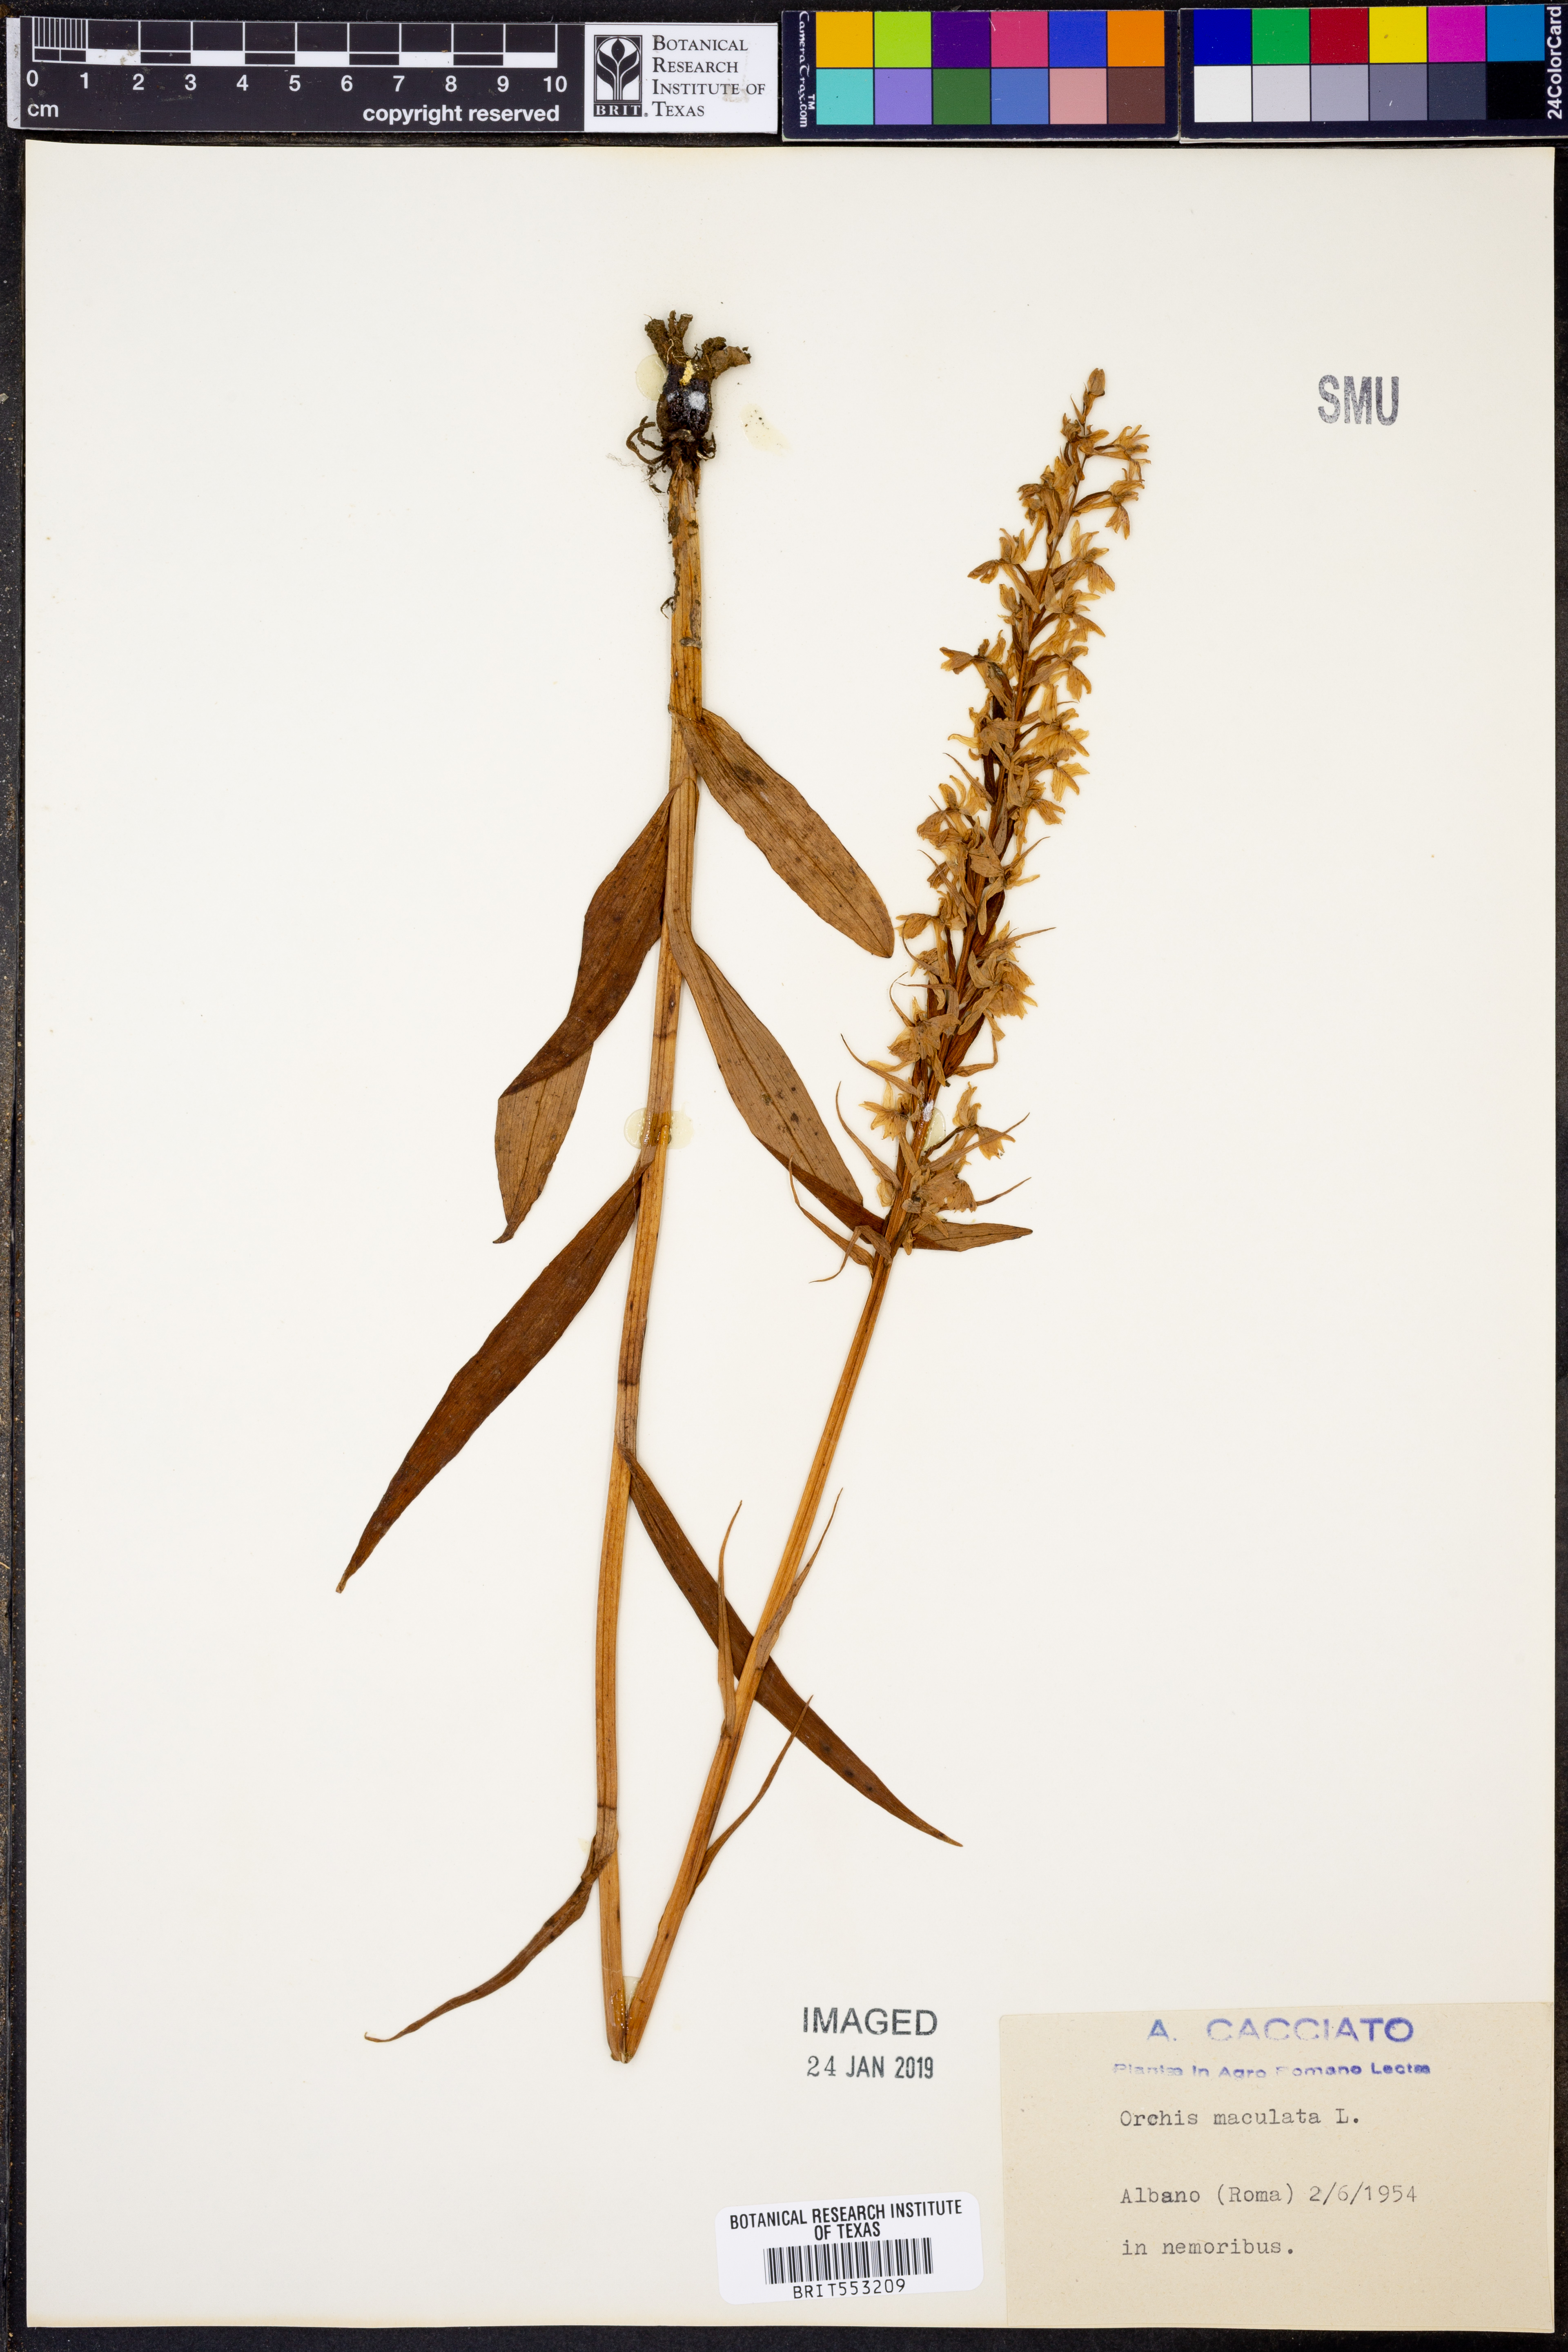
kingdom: Plantae
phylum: Tracheophyta
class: Liliopsida
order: Asparagales
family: Orchidaceae
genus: Dactylorhiza
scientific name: Dactylorhiza maculata
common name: Heath spotted-orchid
